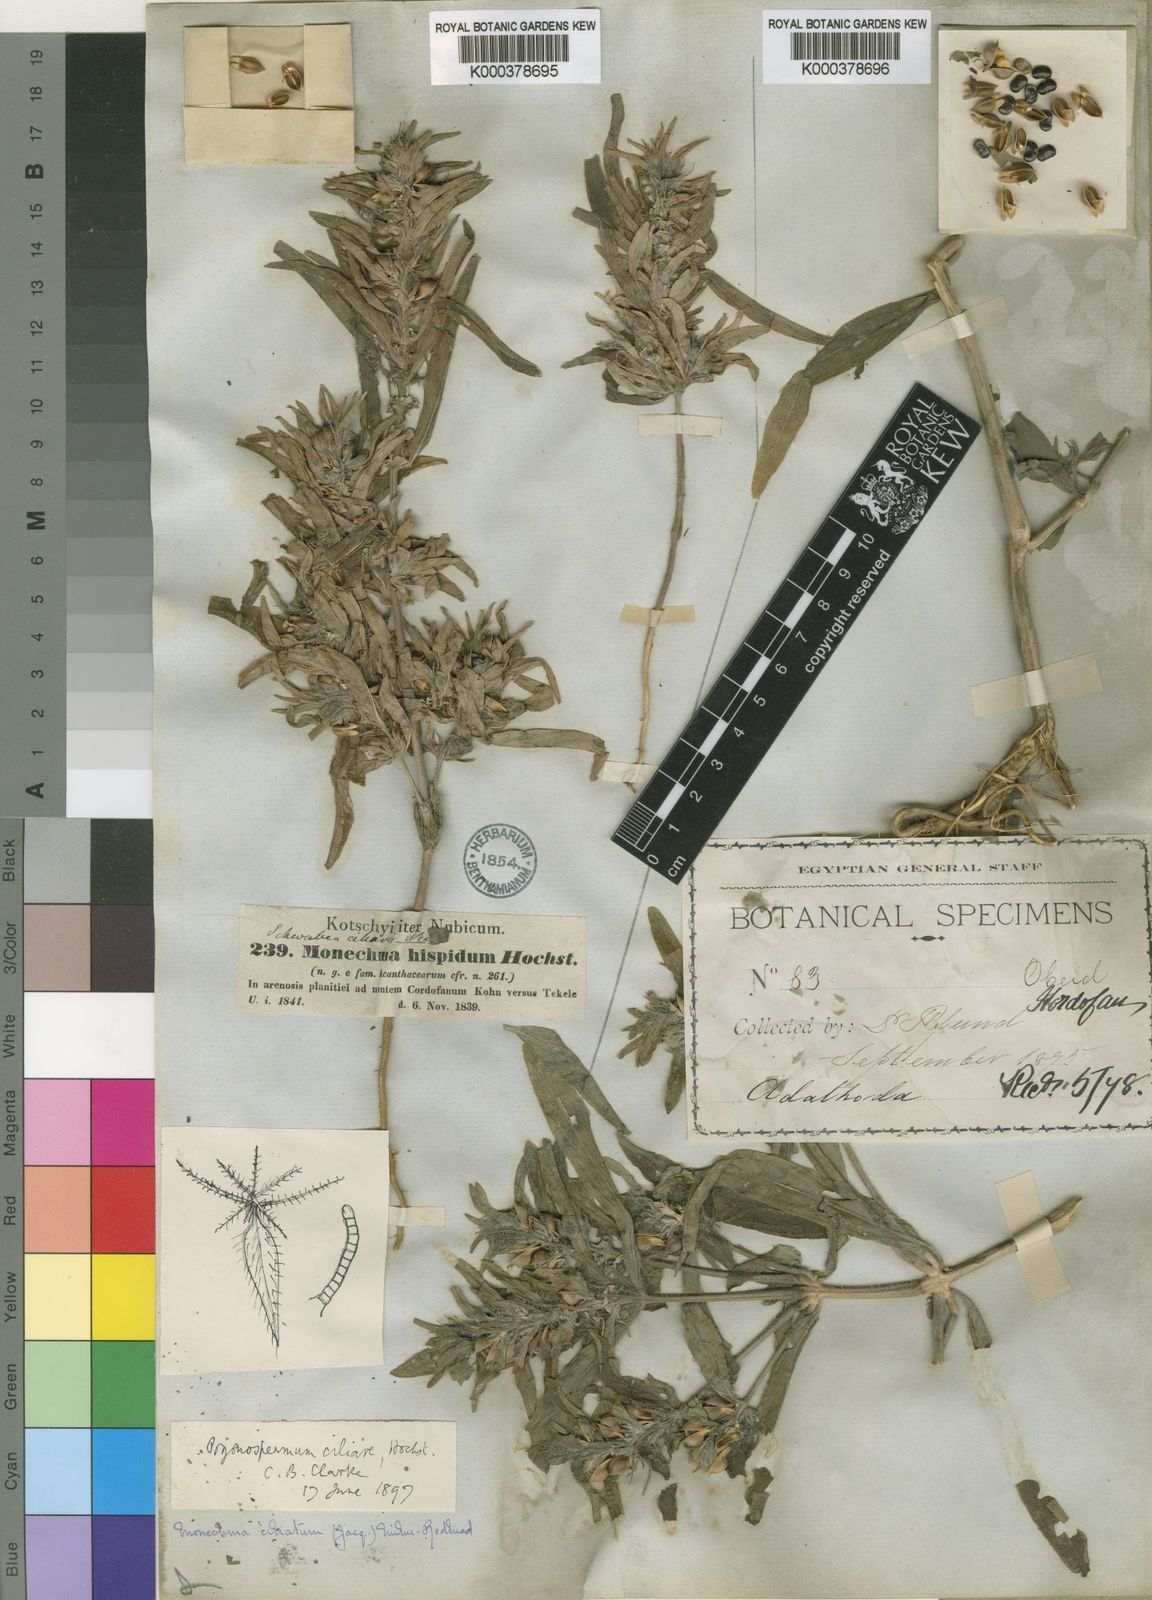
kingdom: Plantae
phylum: Tracheophyta
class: Magnoliopsida
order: Lamiales
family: Acanthaceae
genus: Pogonospermum
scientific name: Pogonospermum ciliare
